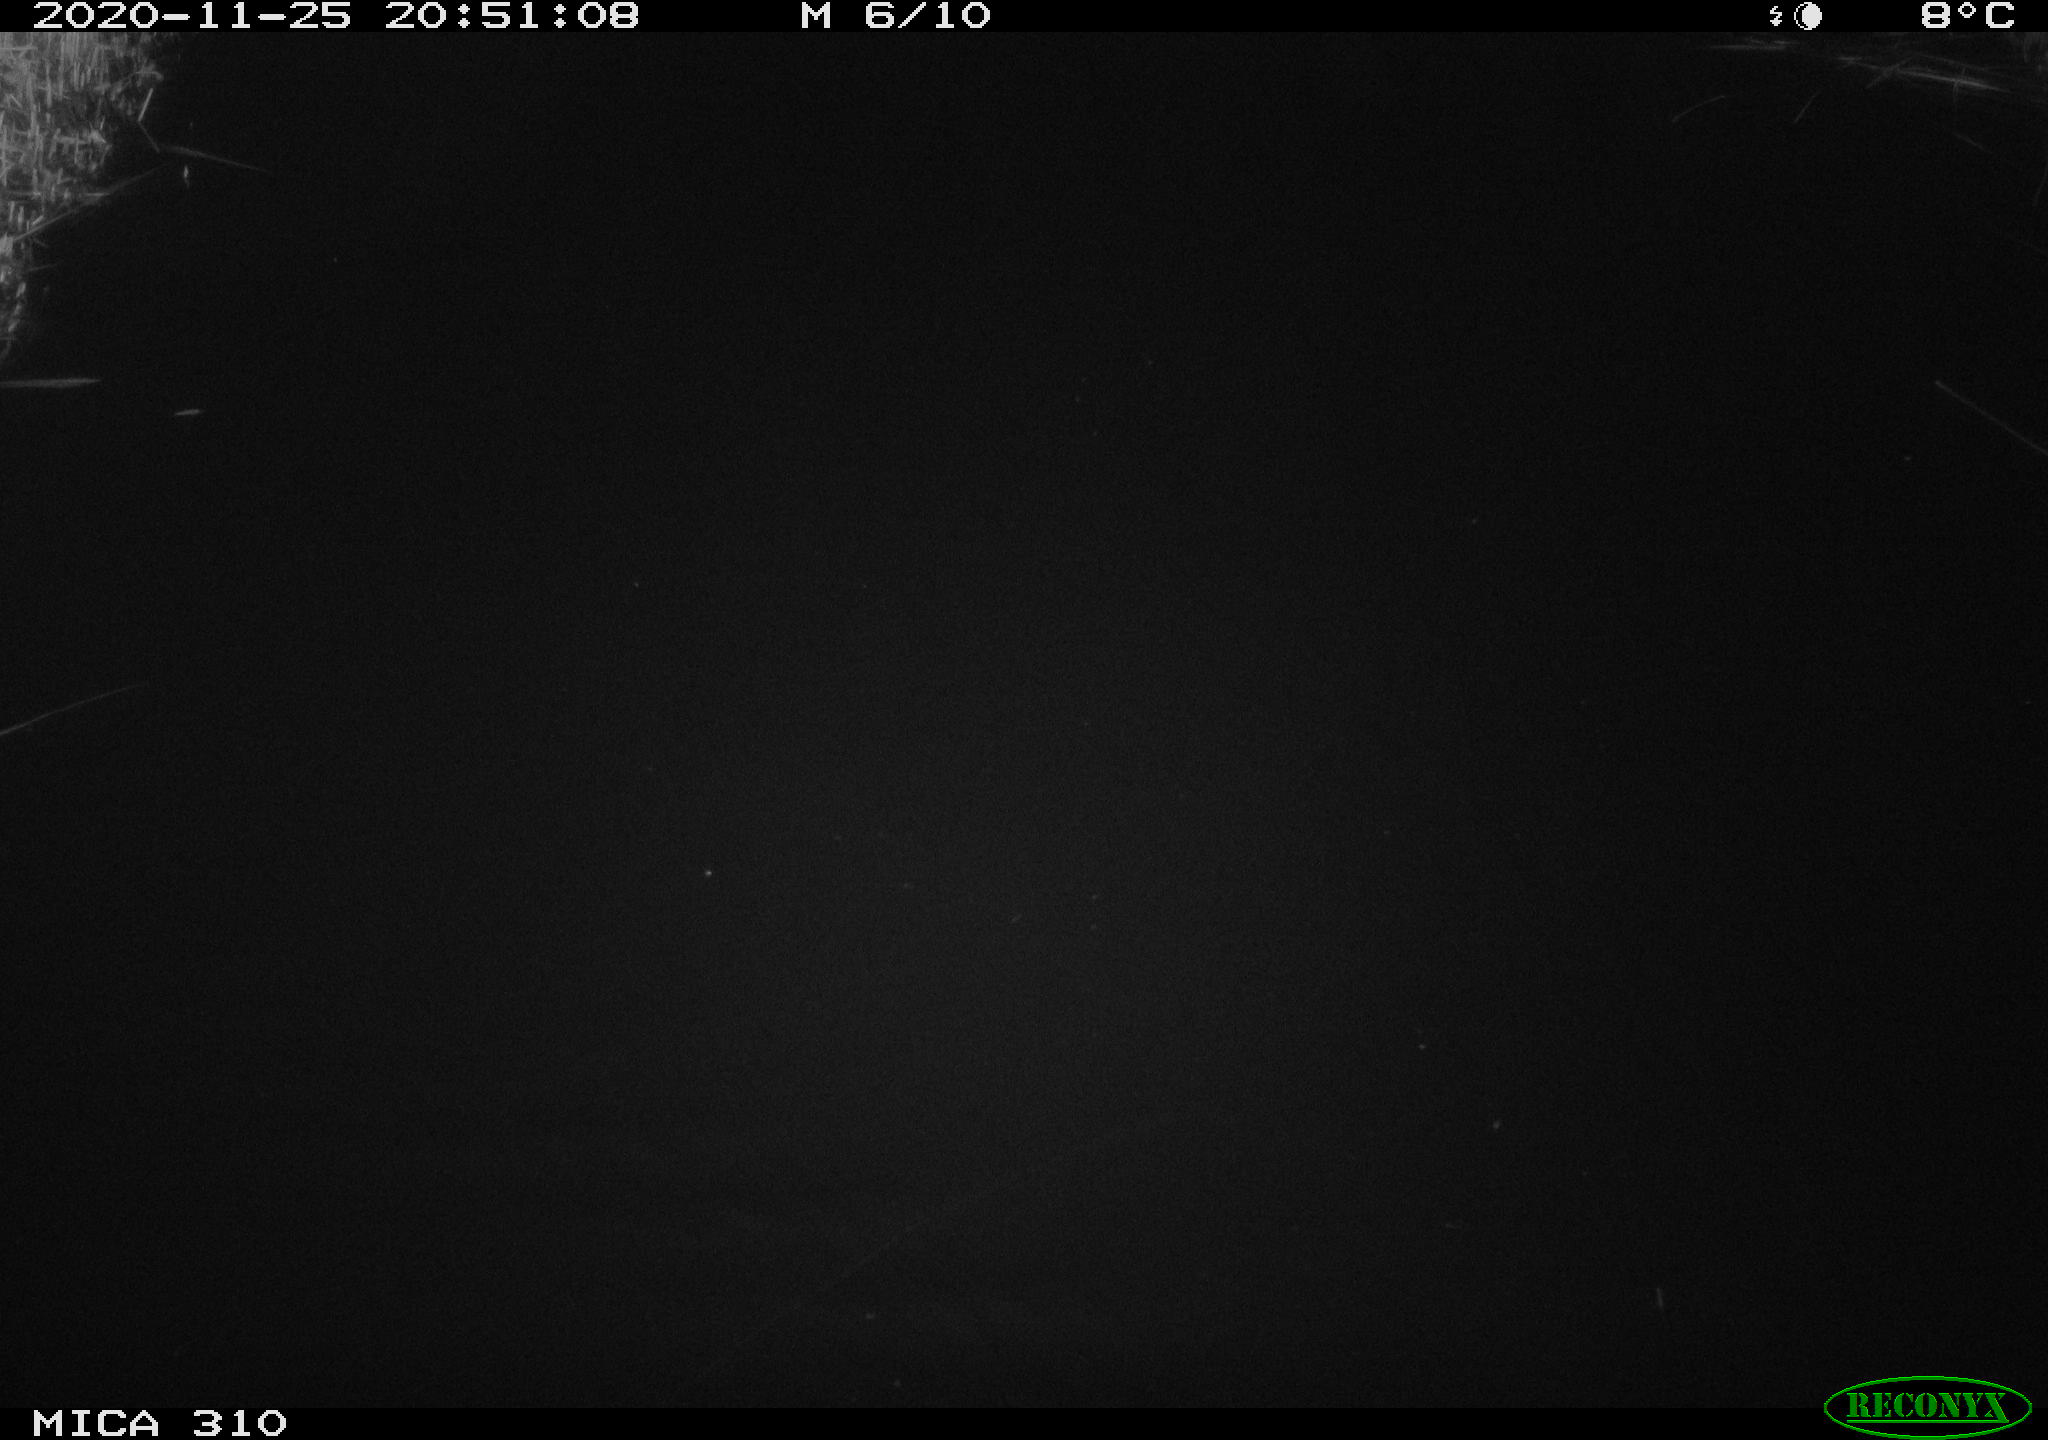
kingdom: Animalia
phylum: Chordata
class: Mammalia
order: Rodentia
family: Muridae
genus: Rattus
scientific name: Rattus norvegicus
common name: Brown rat
